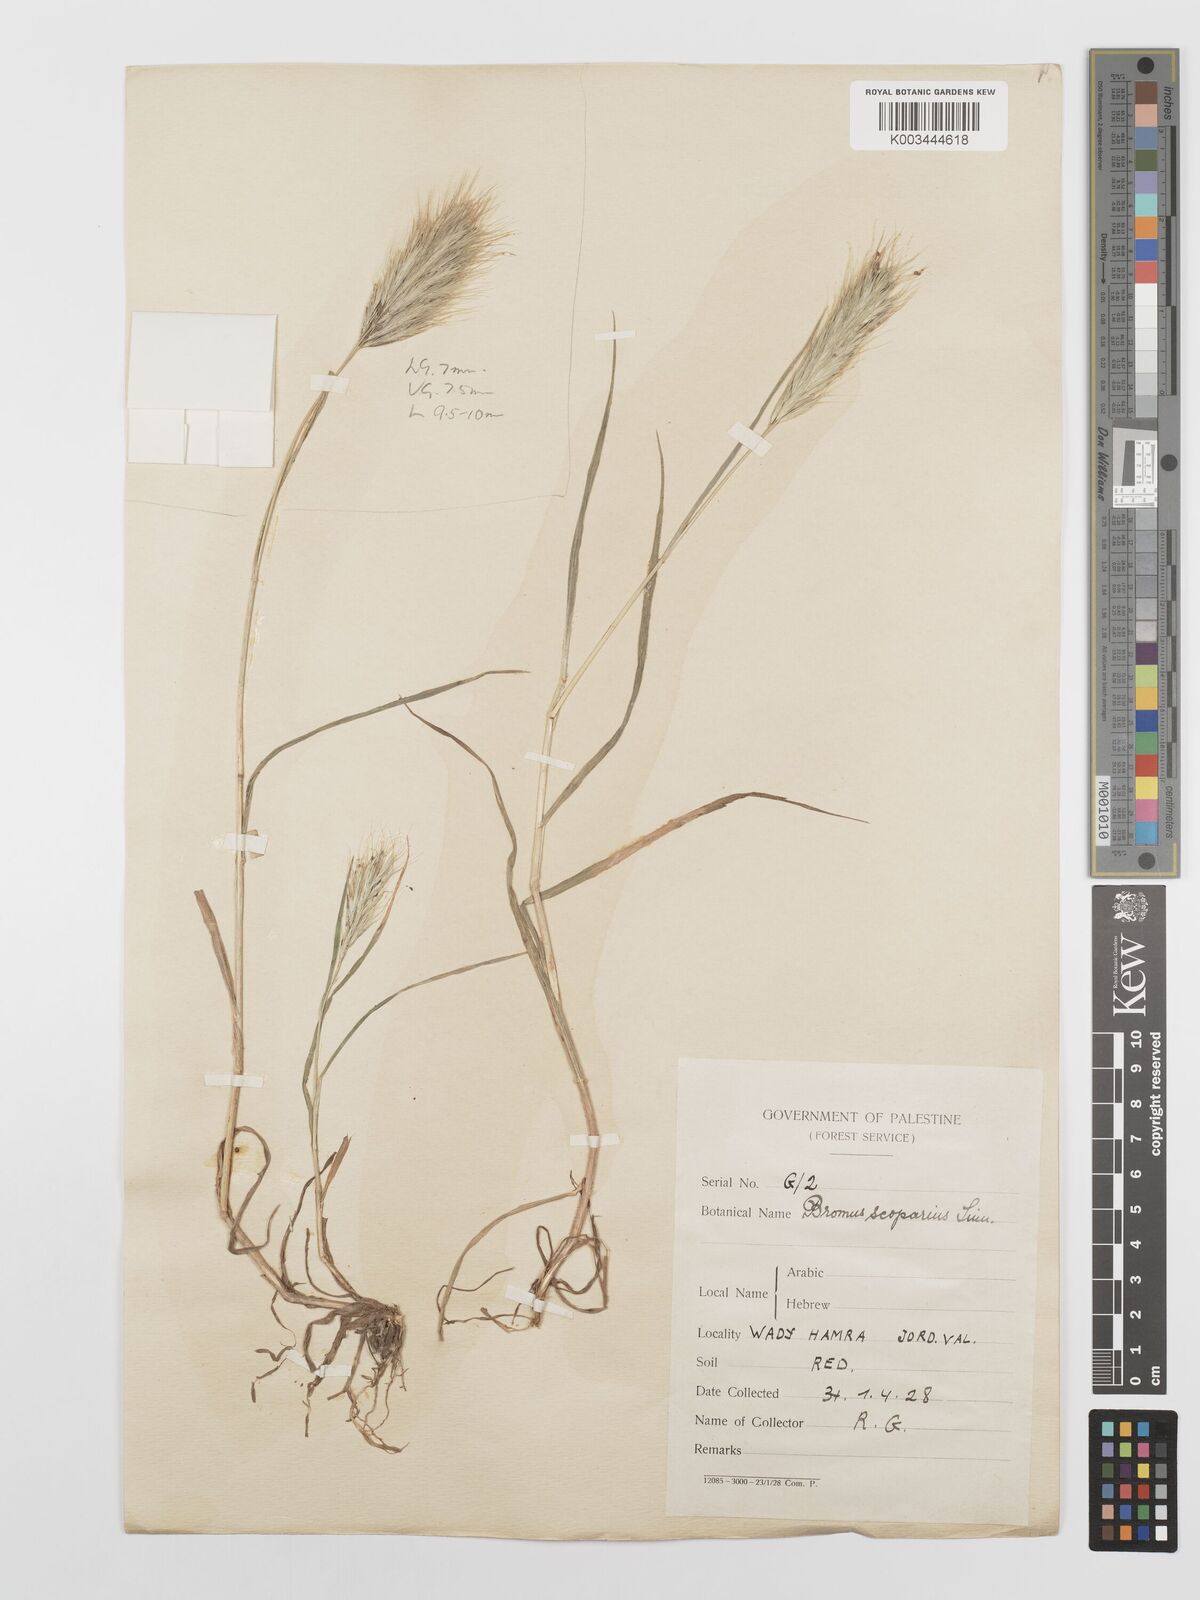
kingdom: Plantae
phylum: Tracheophyta
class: Liliopsida
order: Poales
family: Poaceae
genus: Bromus
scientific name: Bromus scoparius
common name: Broom brome
